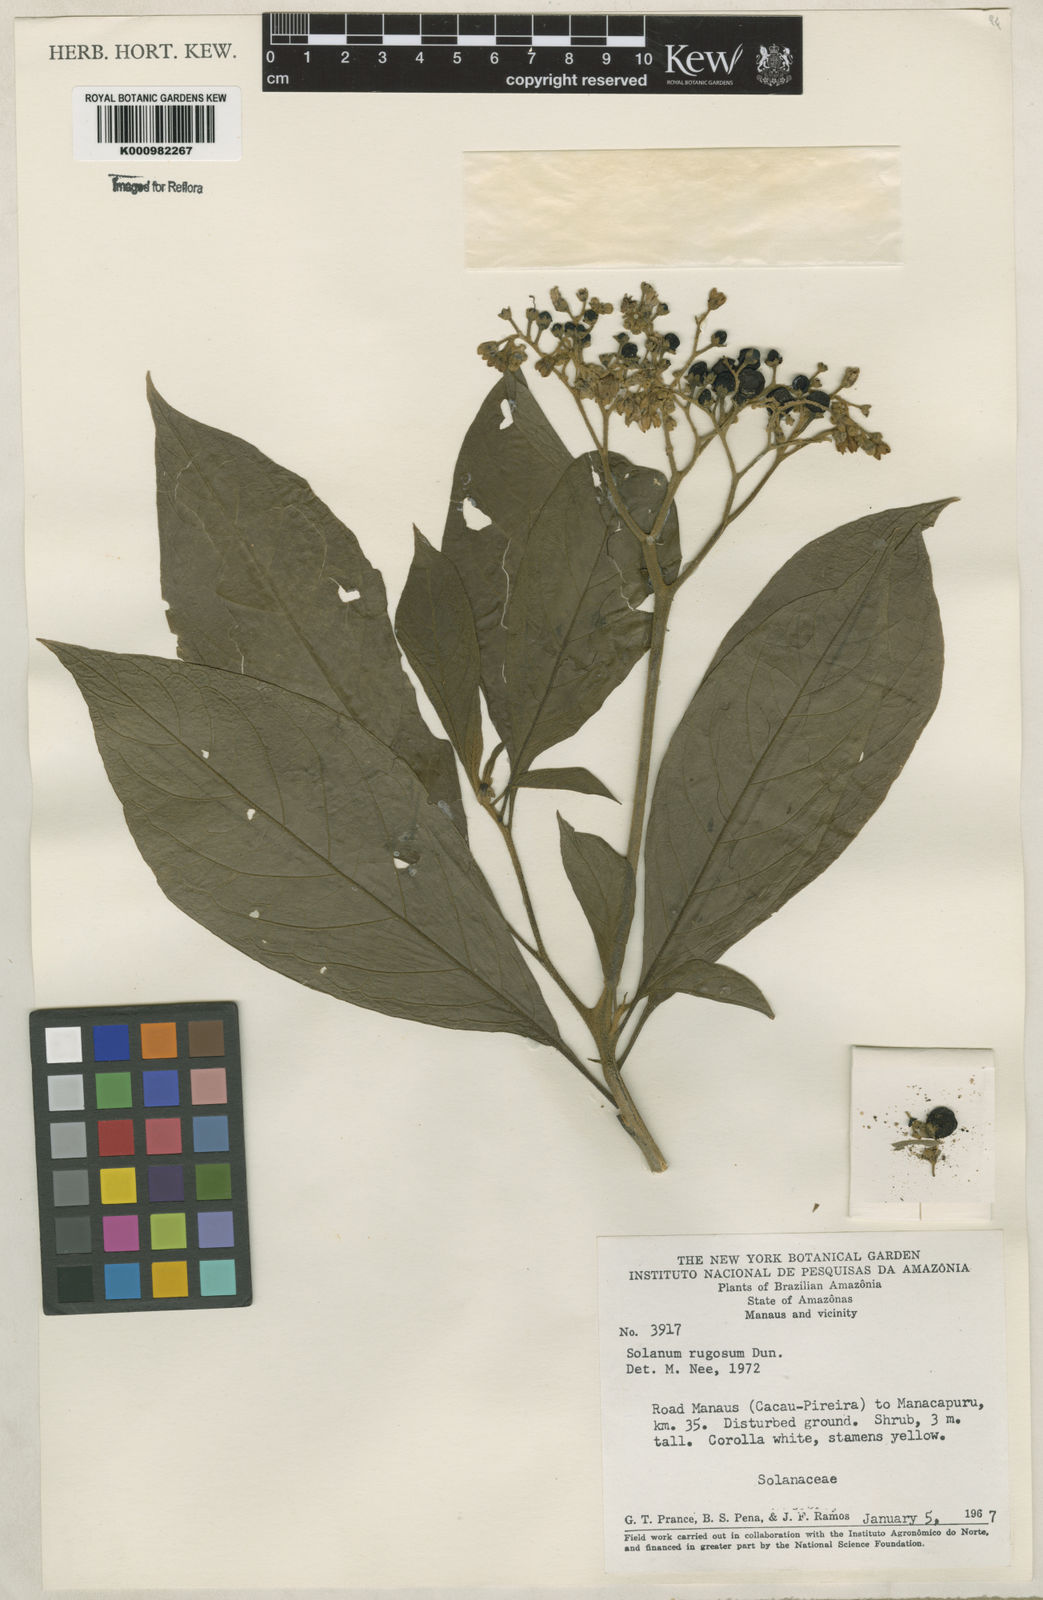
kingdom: Plantae
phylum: Tracheophyta
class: Magnoliopsida
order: Solanales
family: Solanaceae
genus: Solanum
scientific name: Solanum rugosum
